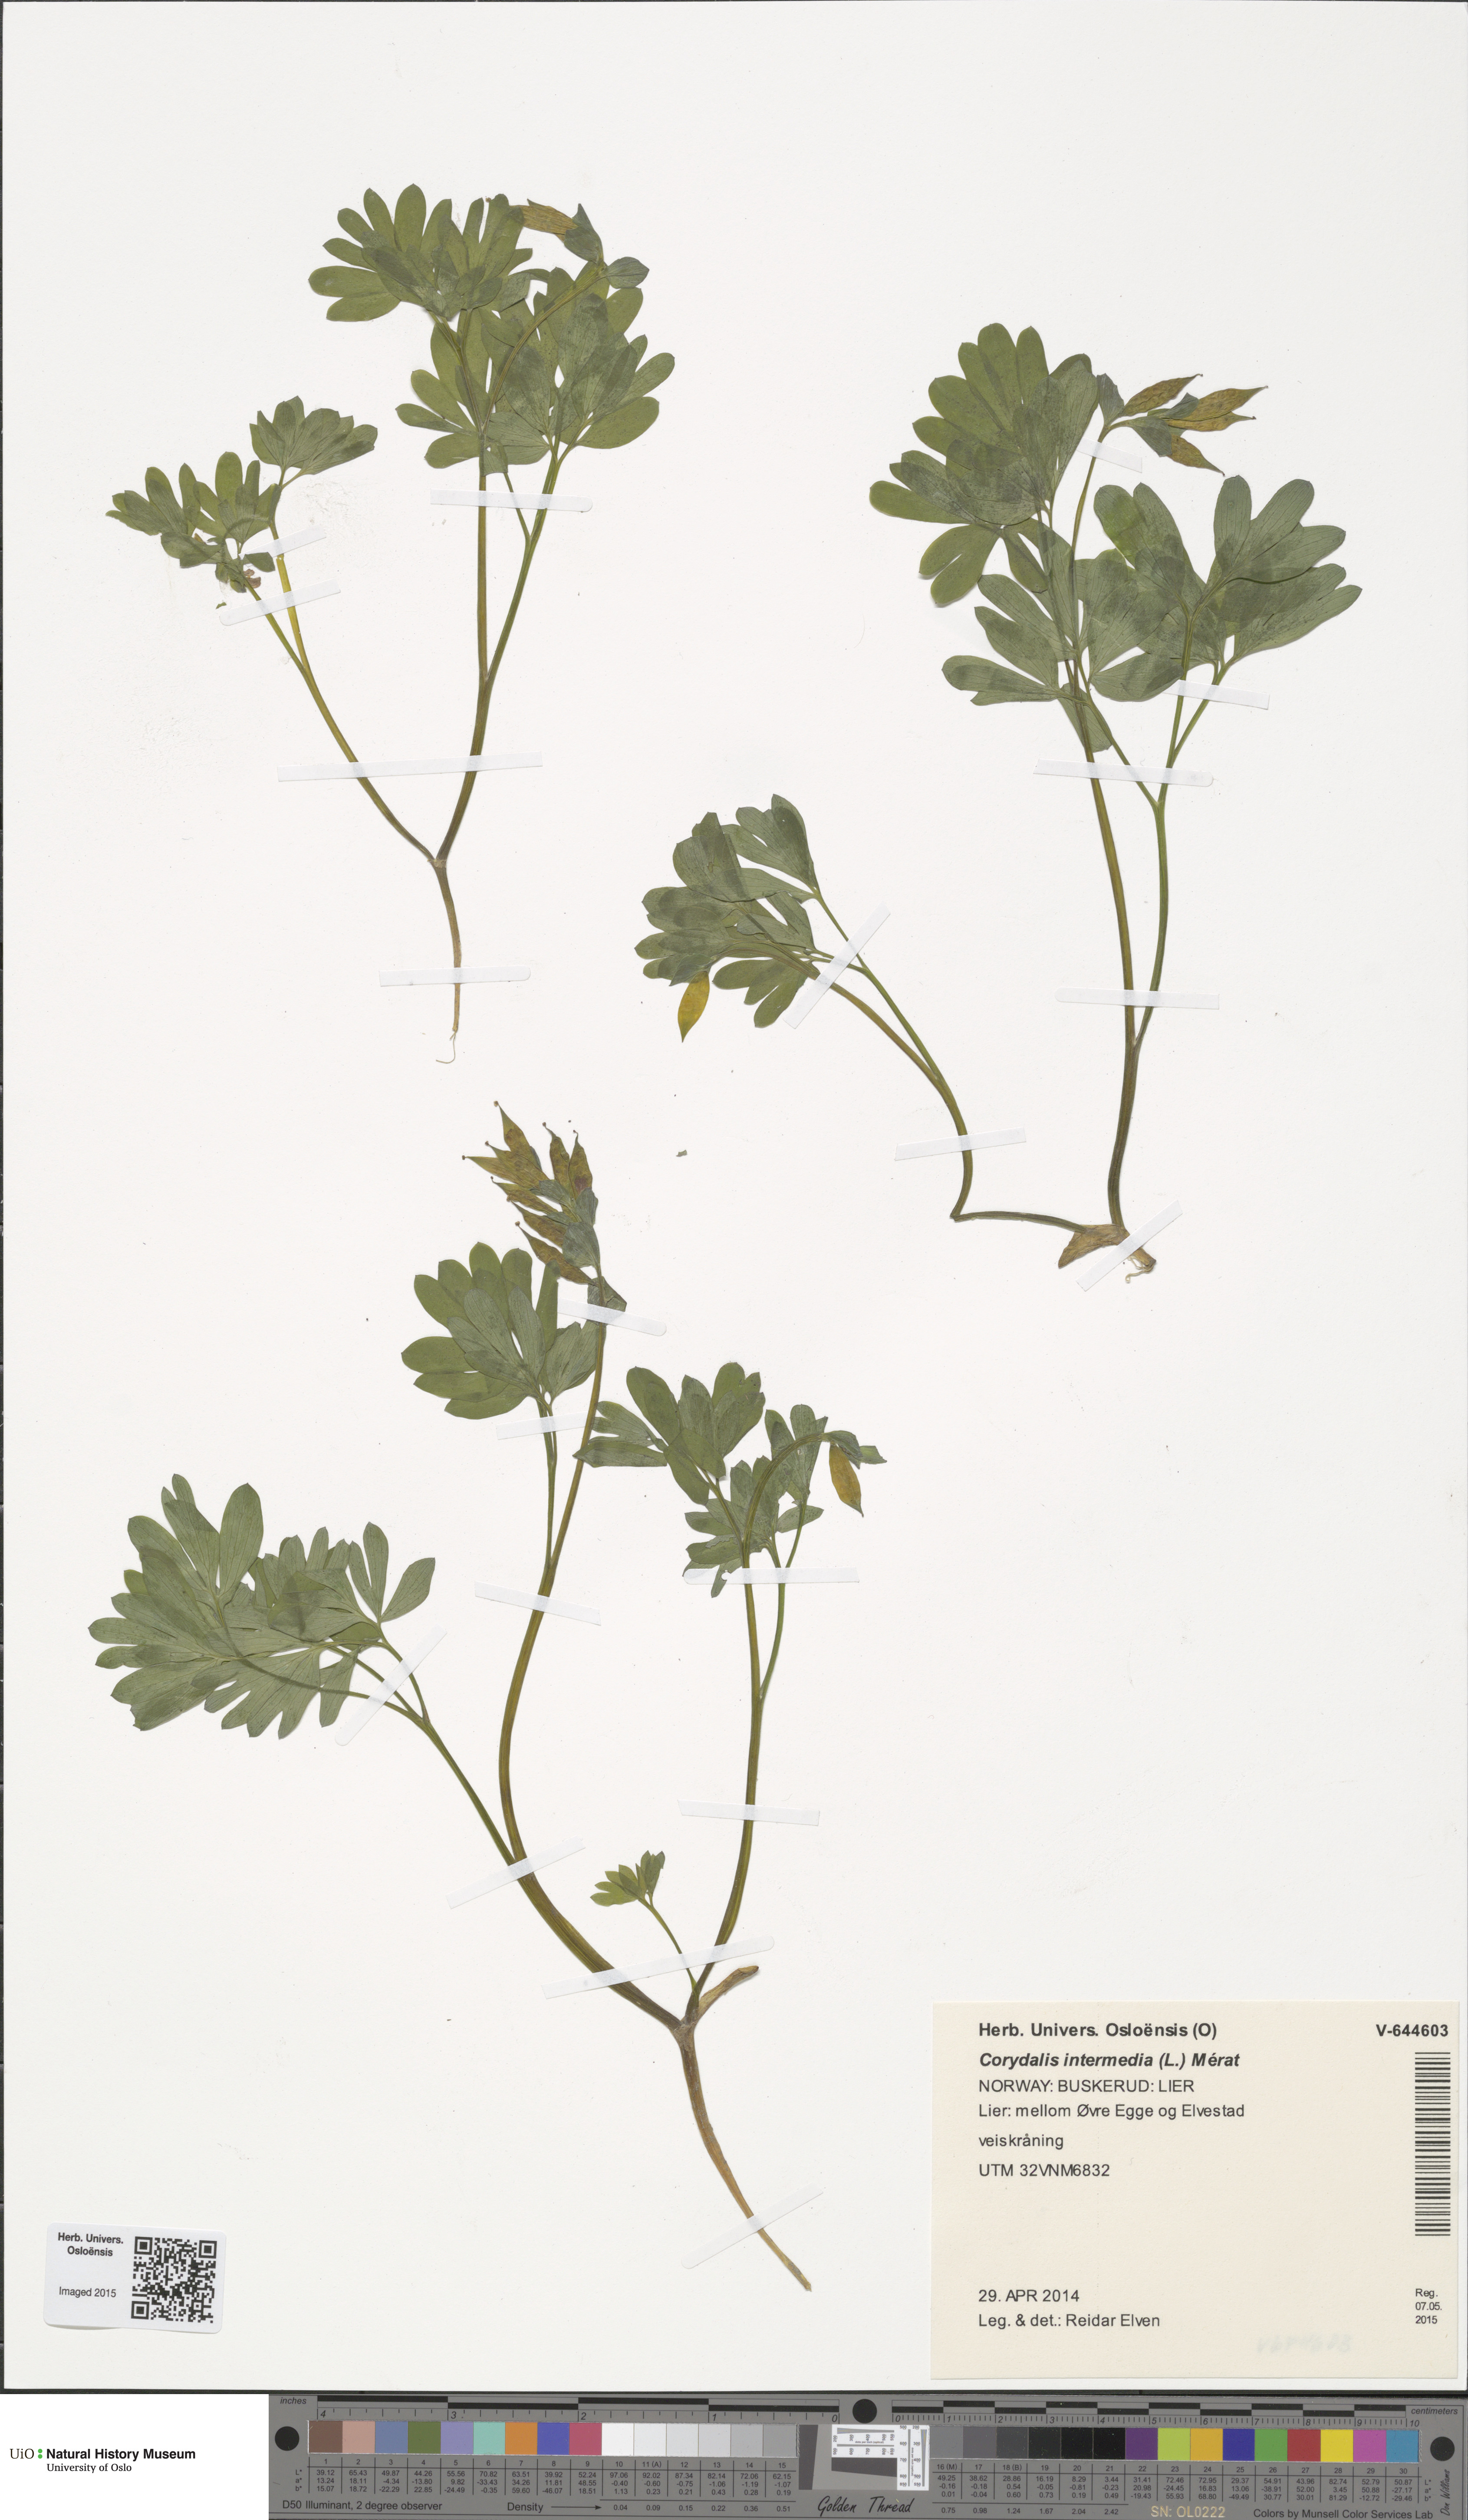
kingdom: Plantae
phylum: Tracheophyta
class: Magnoliopsida
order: Ranunculales
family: Papaveraceae
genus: Corydalis
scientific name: Corydalis intermedia
